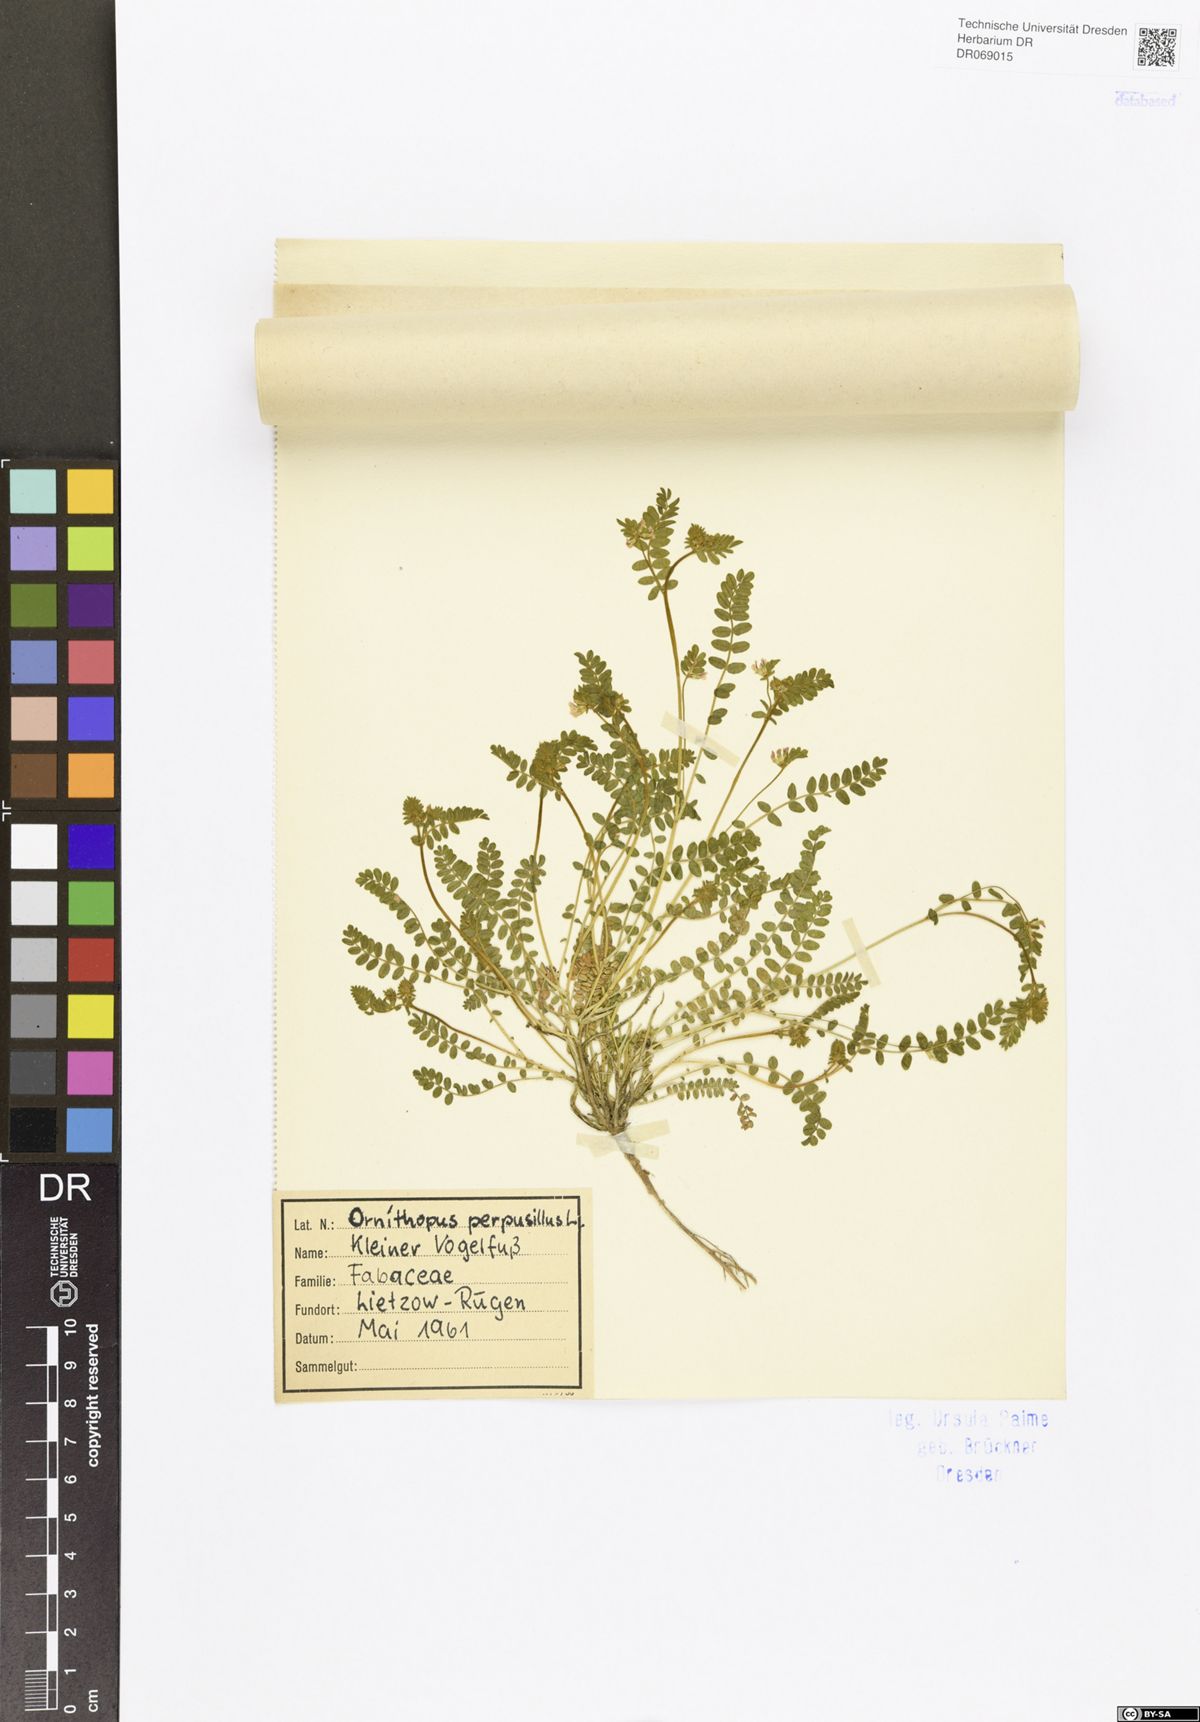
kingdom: Plantae
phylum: Tracheophyta
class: Magnoliopsida
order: Fabales
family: Fabaceae
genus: Ornithopus
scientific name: Ornithopus perpusillus
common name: Bird's-foot
